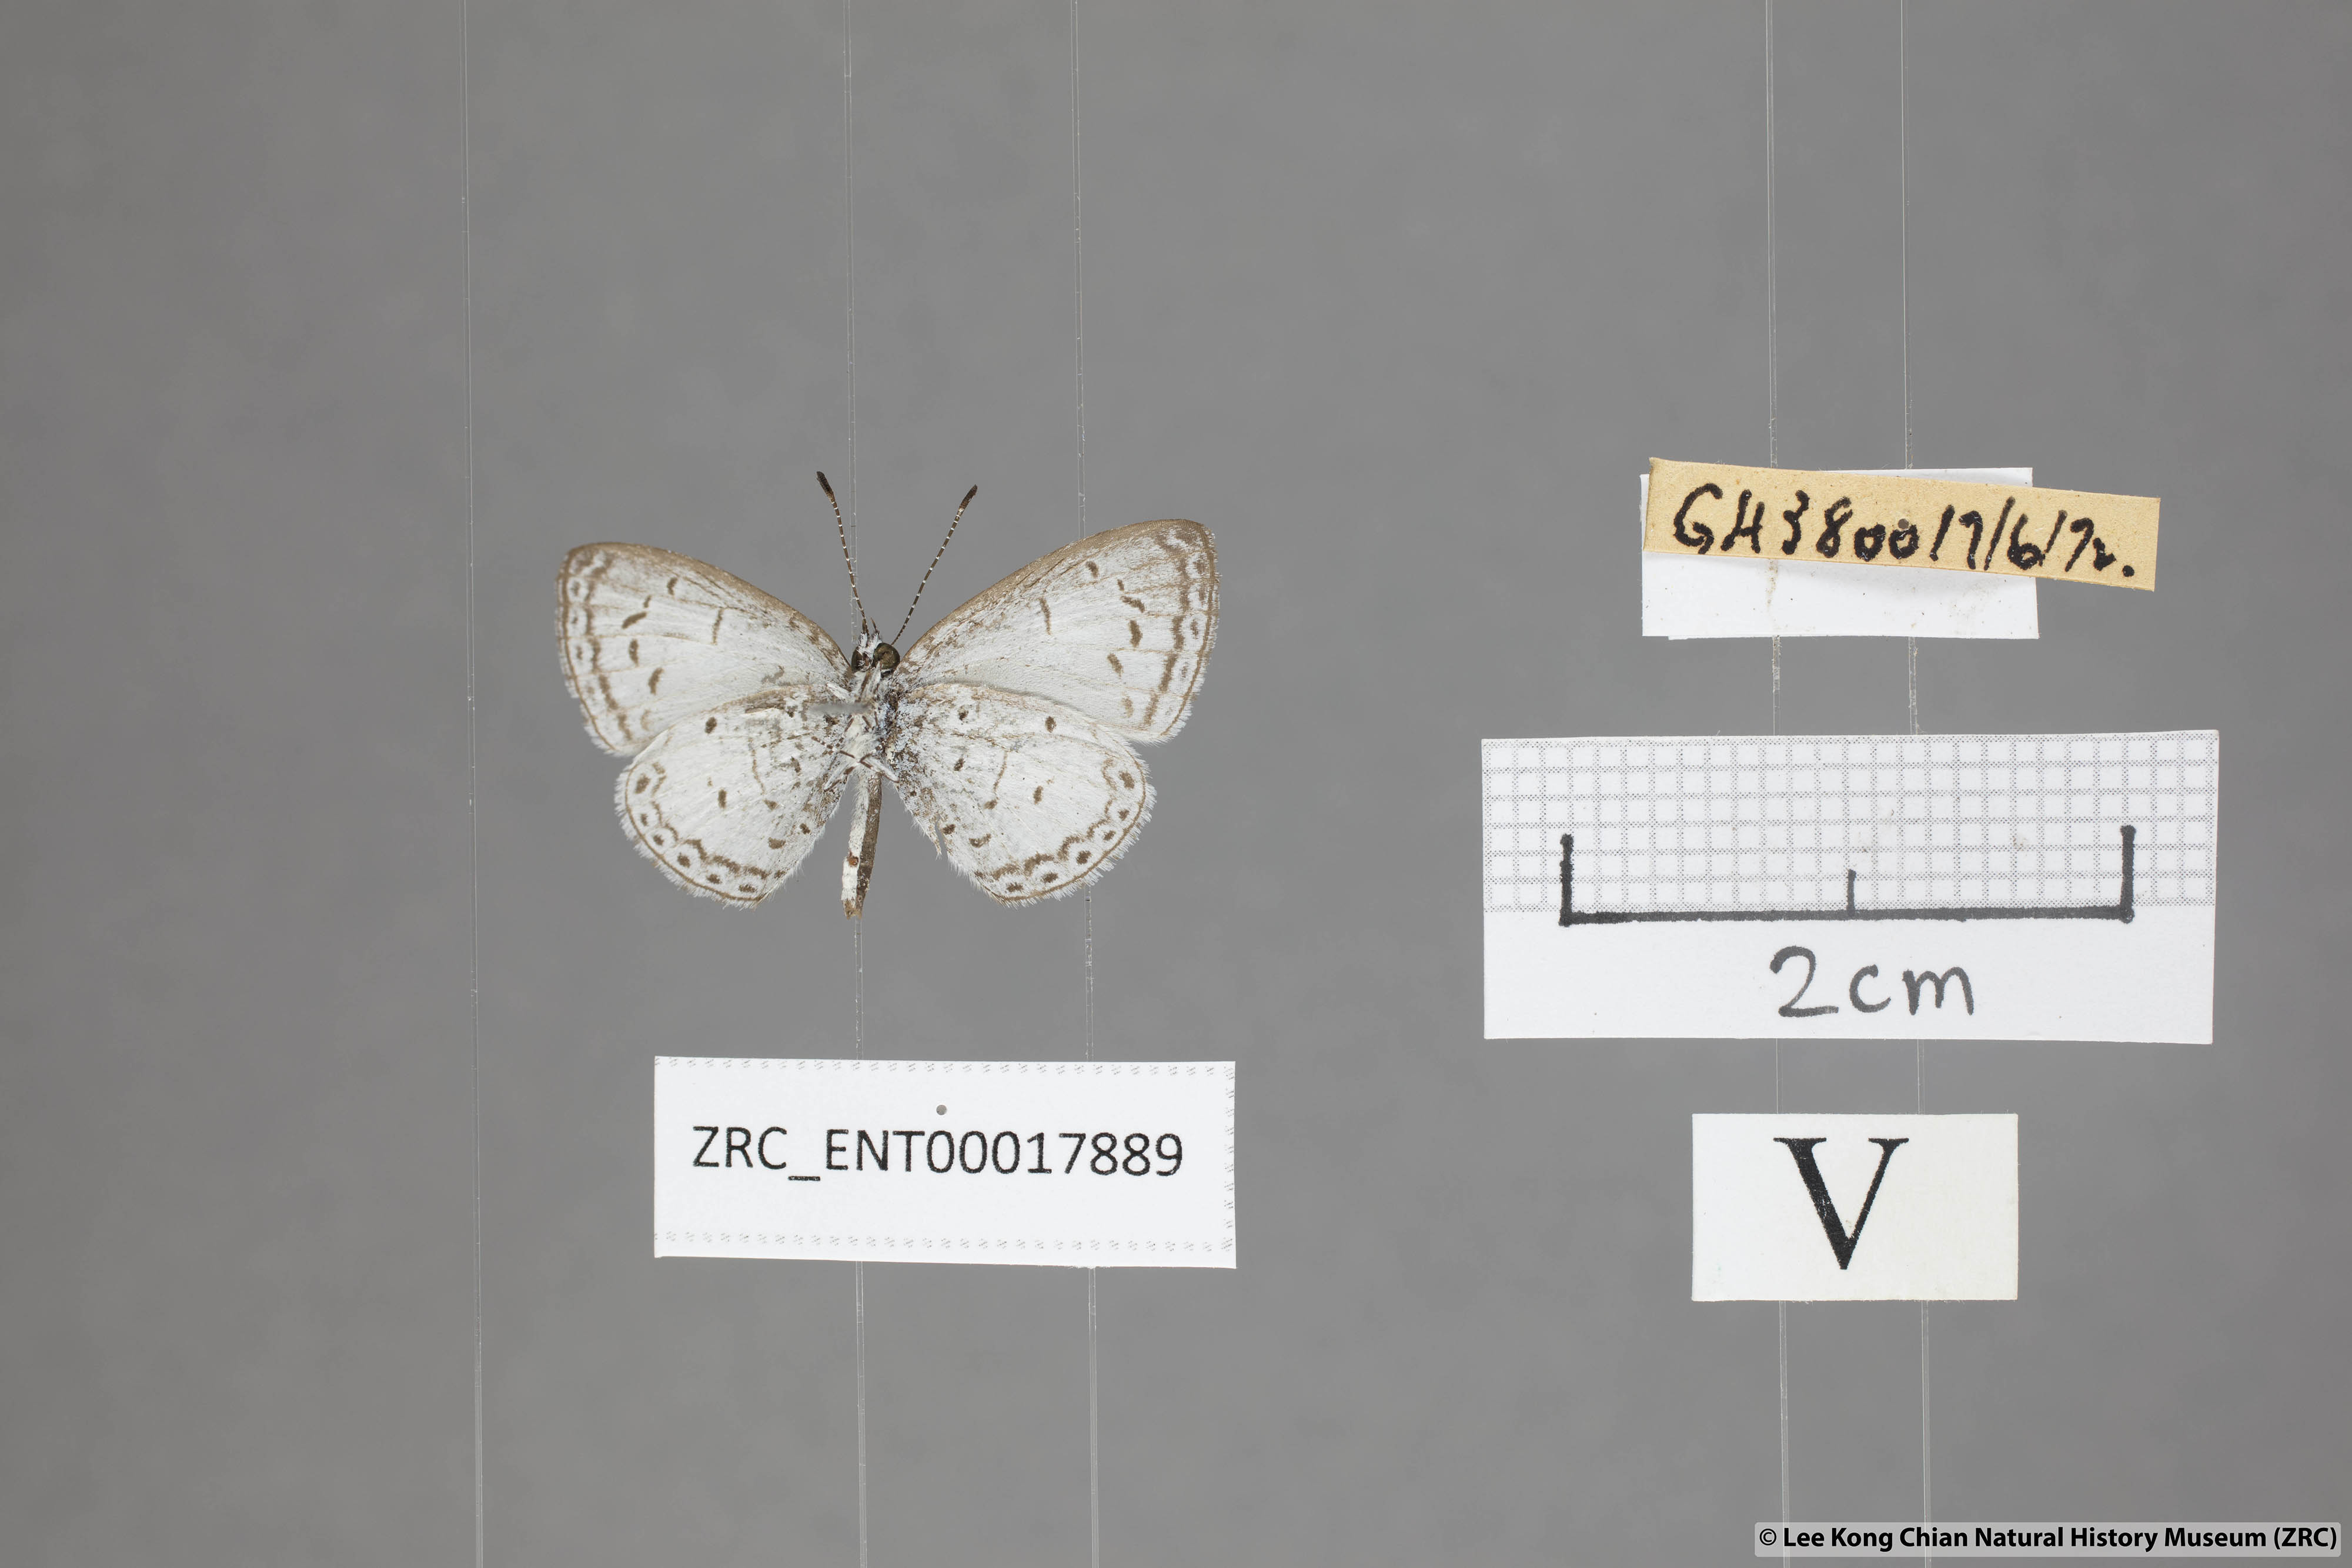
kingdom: Animalia
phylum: Arthropoda
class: Insecta
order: Lepidoptera
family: Lycaenidae
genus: Oreolyce
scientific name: Oreolyce
